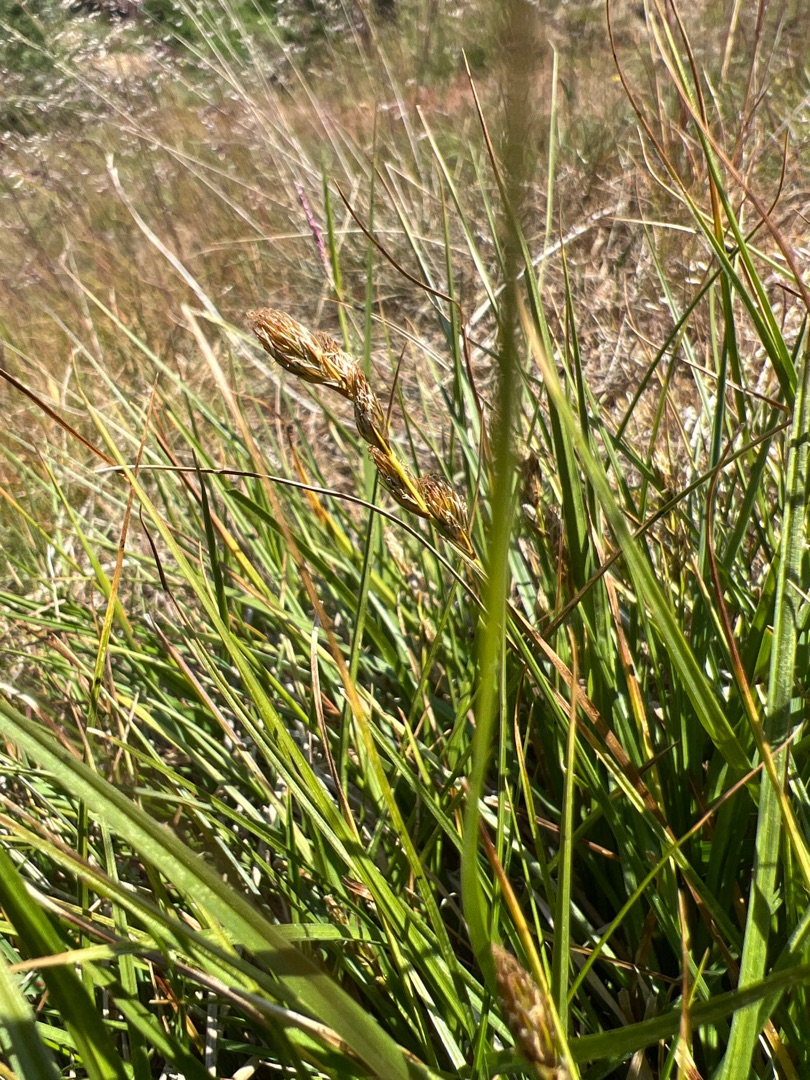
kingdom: Plantae
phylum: Tracheophyta
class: Liliopsida
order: Poales
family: Cyperaceae
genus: Carex
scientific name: Carex leporina
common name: Hare-star
